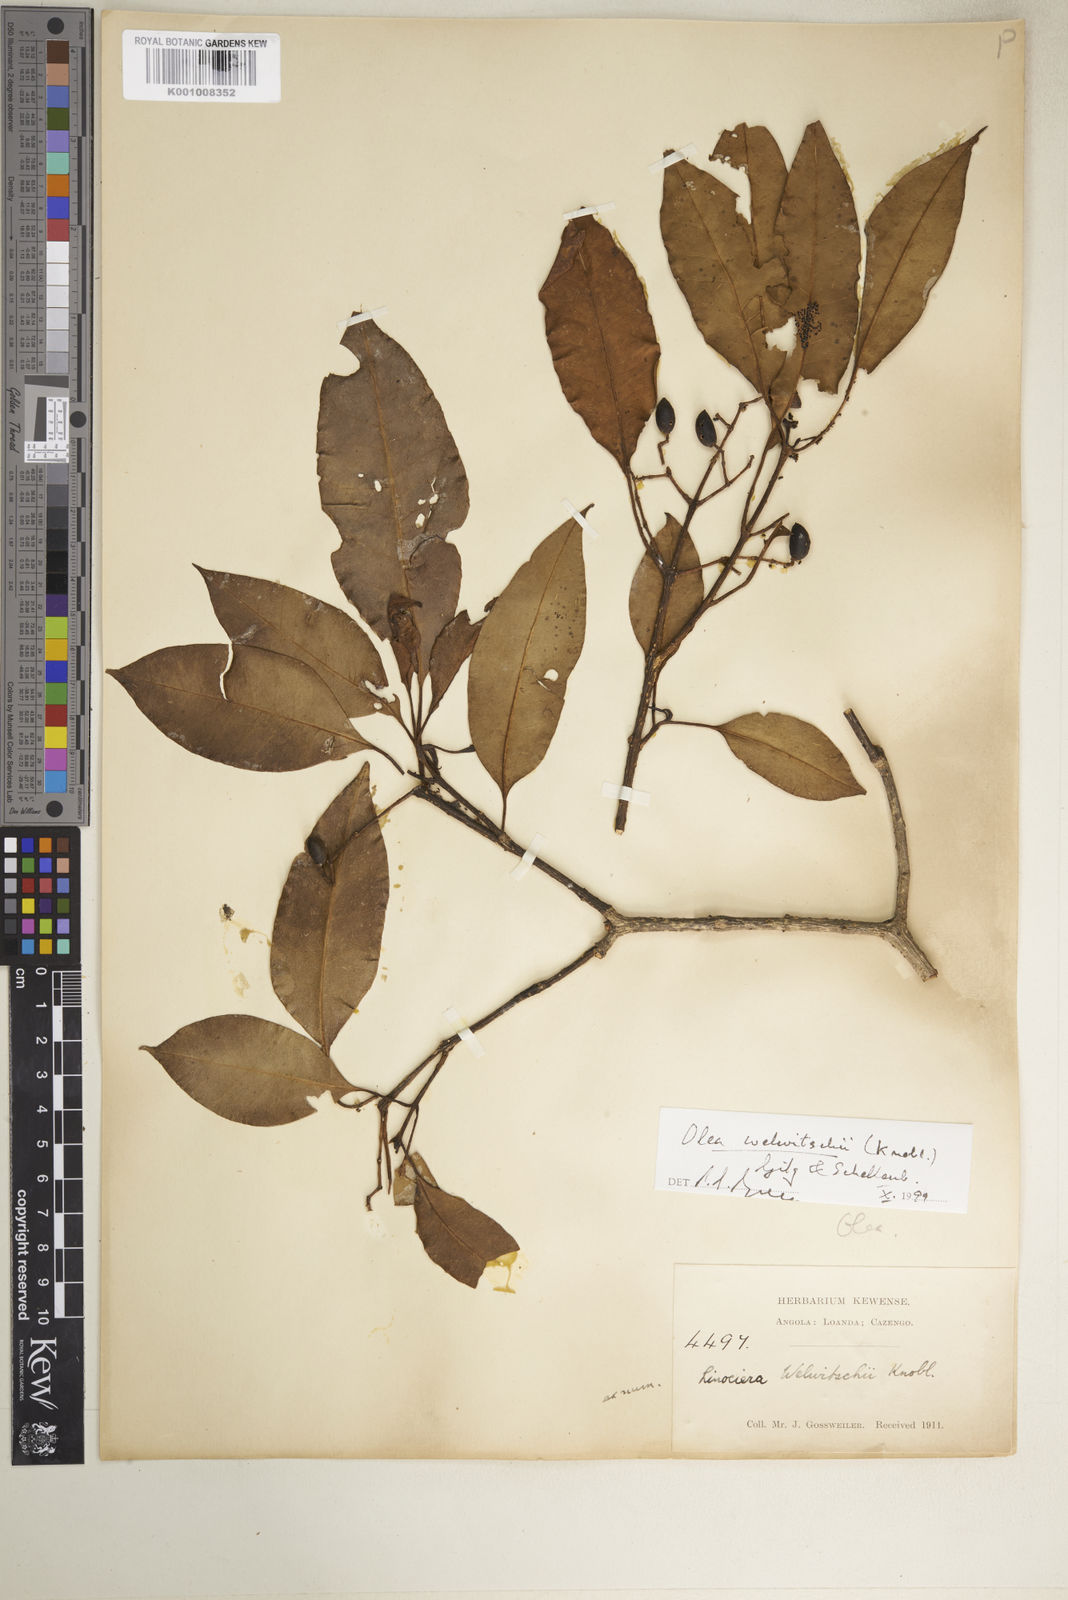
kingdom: Plantae
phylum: Tracheophyta
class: Magnoliopsida
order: Lamiales
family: Oleaceae
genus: Olea
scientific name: Olea welwitschii
